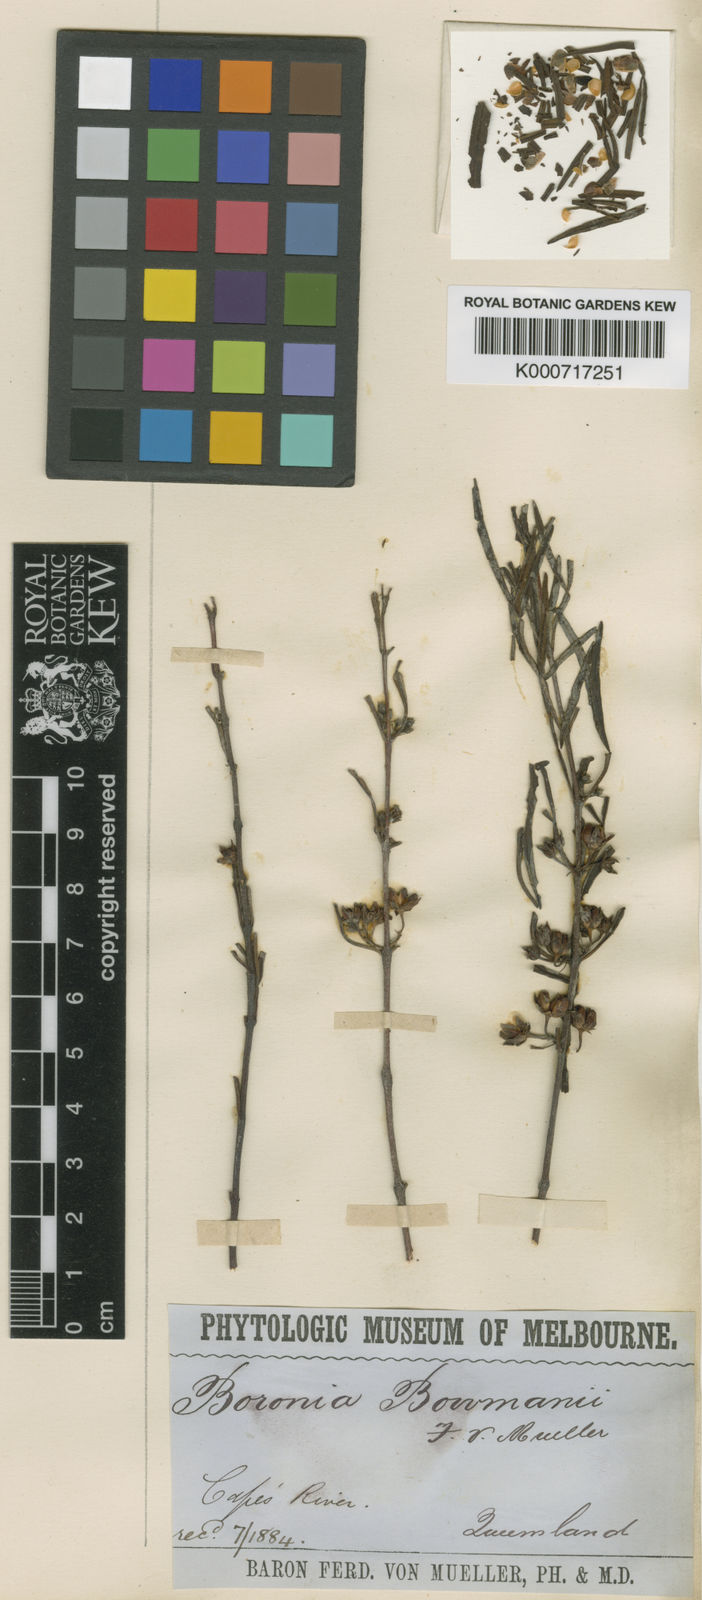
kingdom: Plantae
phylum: Tracheophyta
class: Magnoliopsida
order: Sapindales
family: Rutaceae
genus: Boronia
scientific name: Boronia bowmanii
